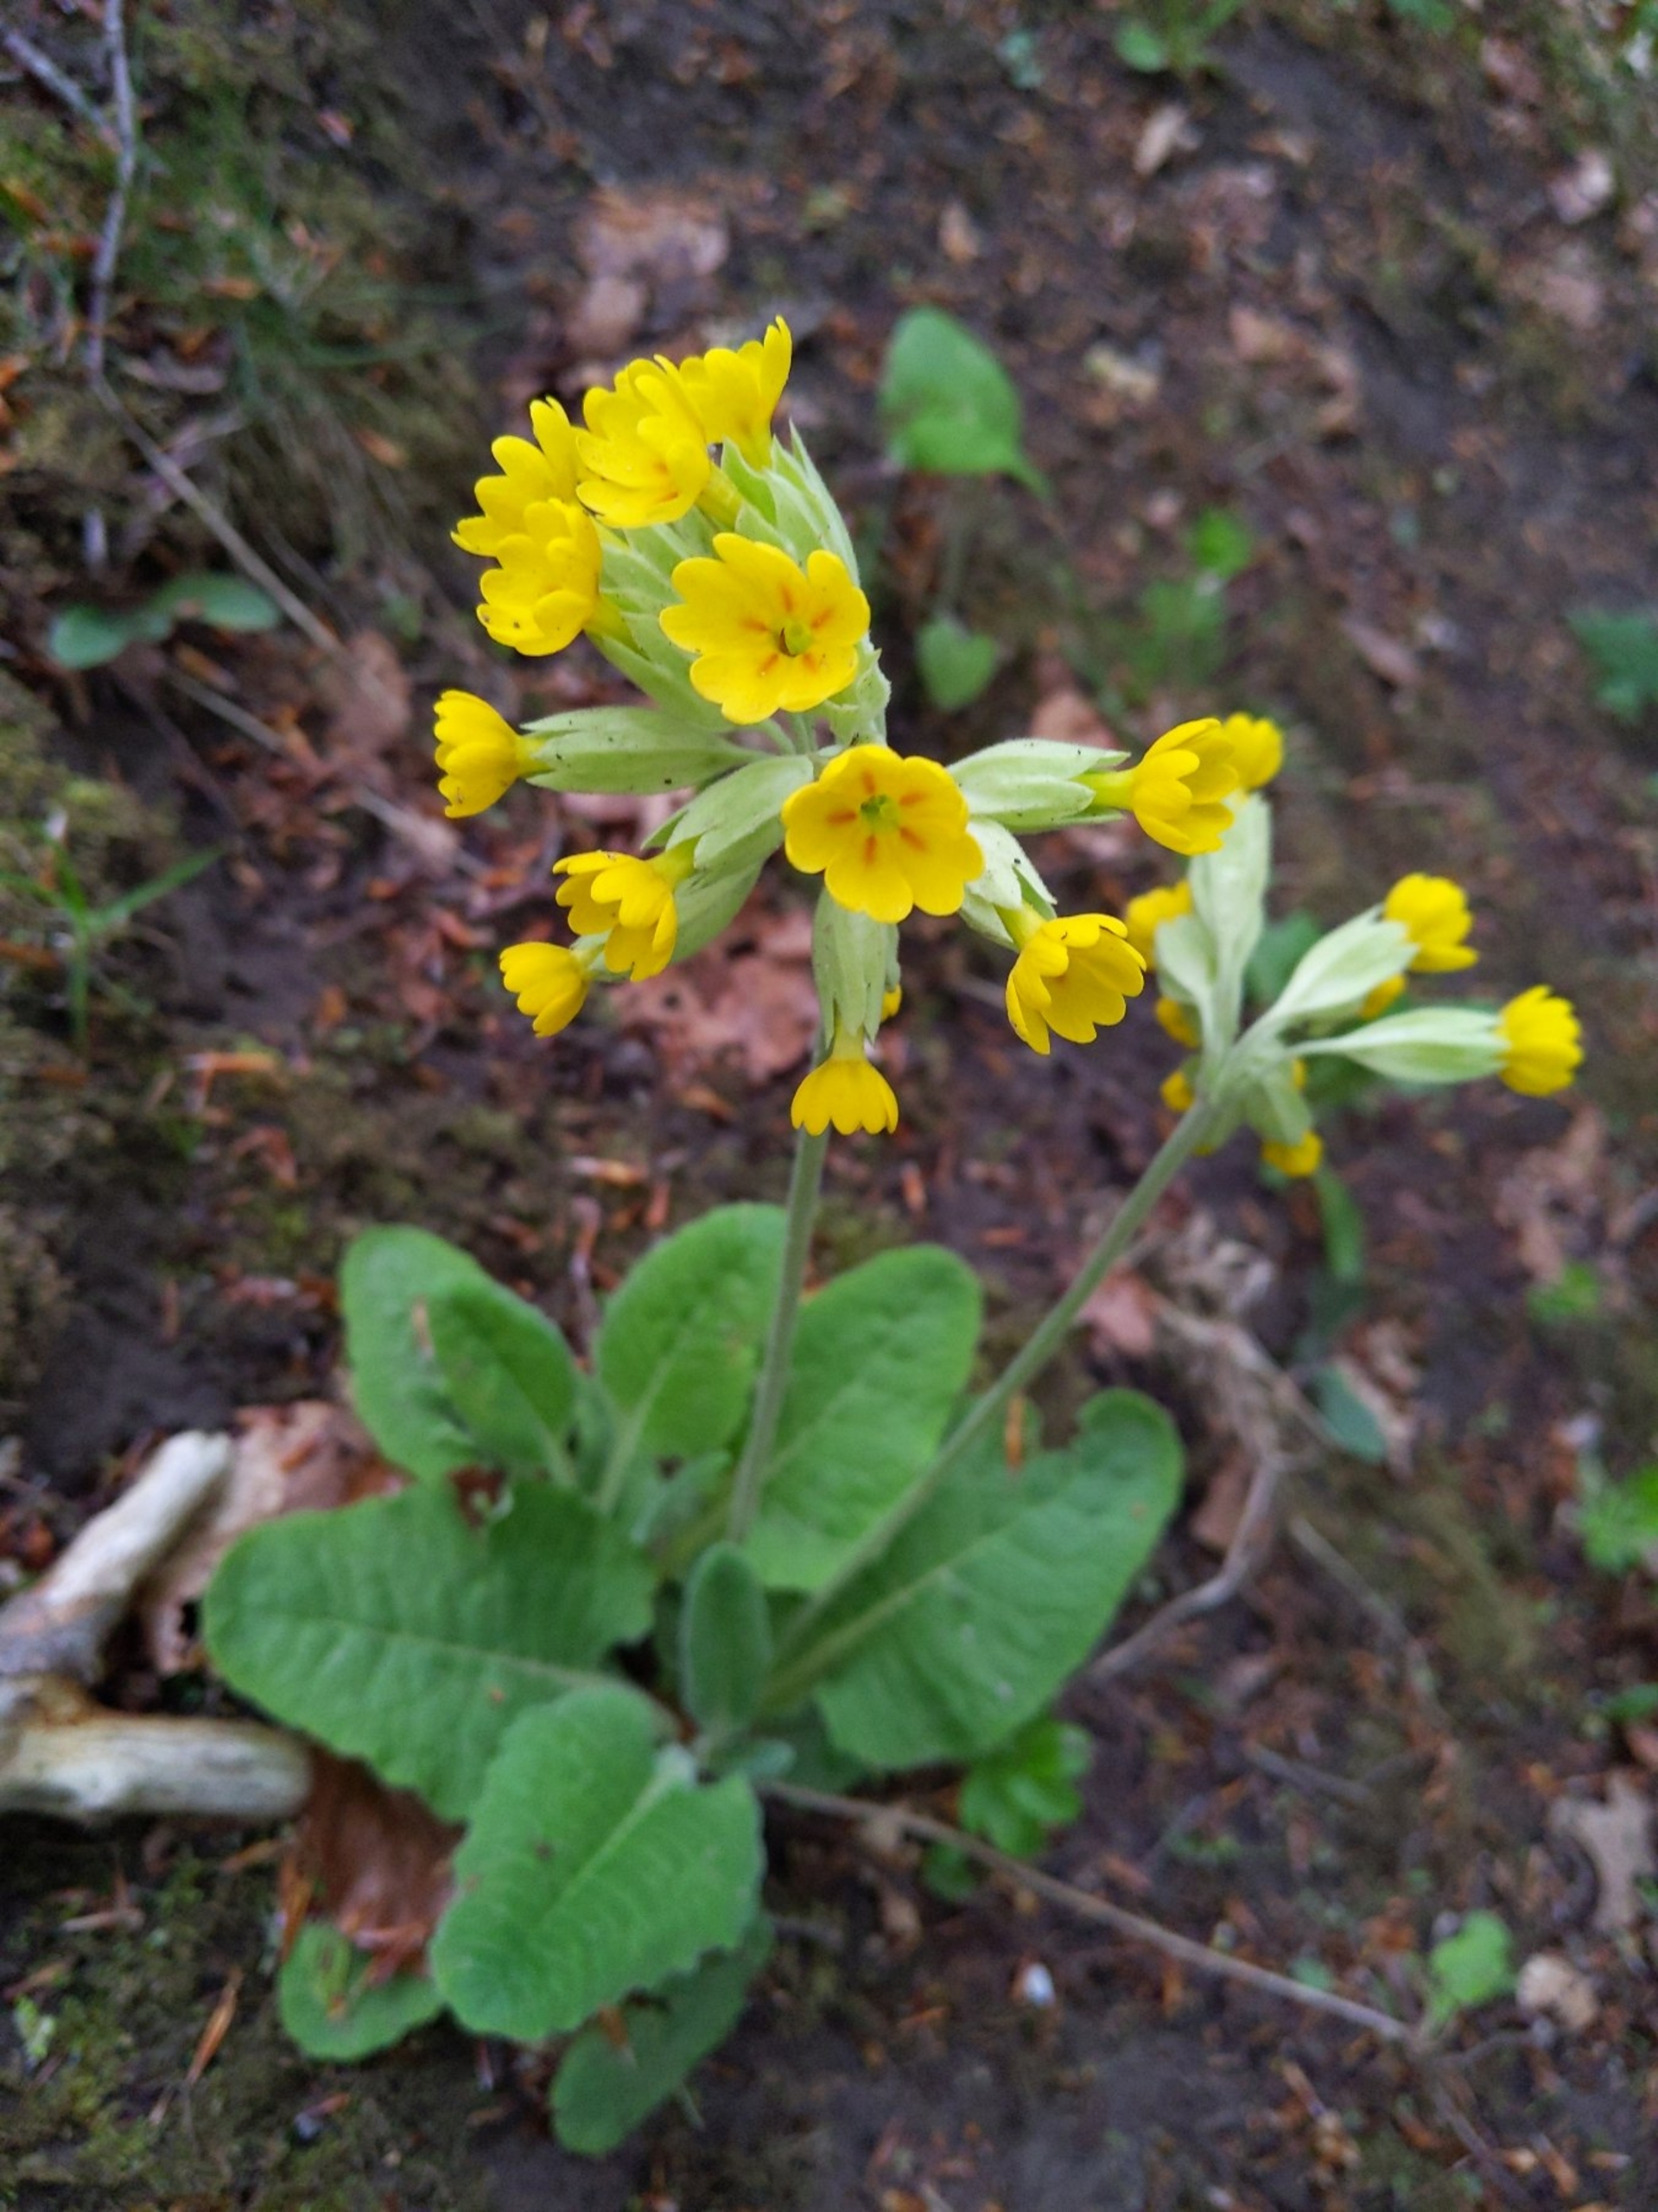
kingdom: Plantae
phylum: Tracheophyta
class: Magnoliopsida
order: Ericales
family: Primulaceae
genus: Primula
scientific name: Primula veris
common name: Hulkravet kodriver
